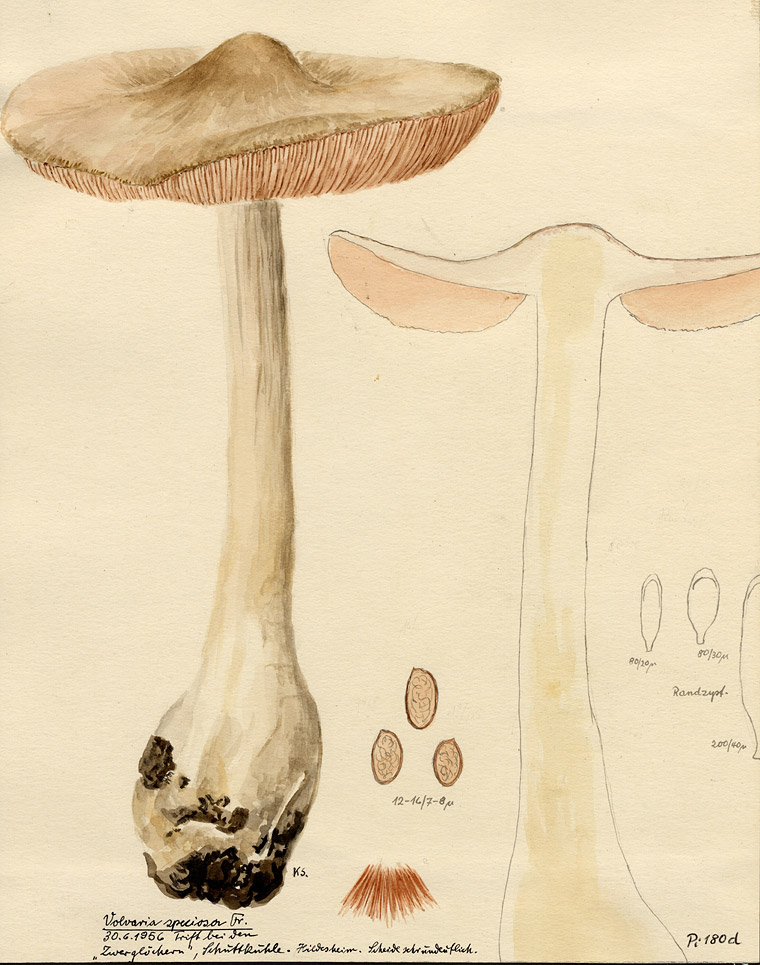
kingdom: Fungi
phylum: Basidiomycota
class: Agaricomycetes
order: Agaricales
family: Pluteaceae
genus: Volvopluteus
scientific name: Volvopluteus gloiocephalus
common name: Stubble rosegill
